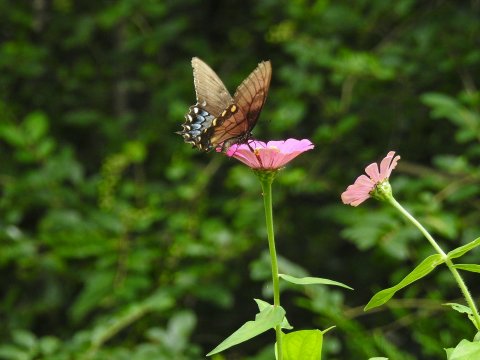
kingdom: Animalia
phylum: Arthropoda
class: Insecta
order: Lepidoptera
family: Papilionidae
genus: Pterourus
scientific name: Pterourus glaucus
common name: Eastern Tiger Swallowtail
